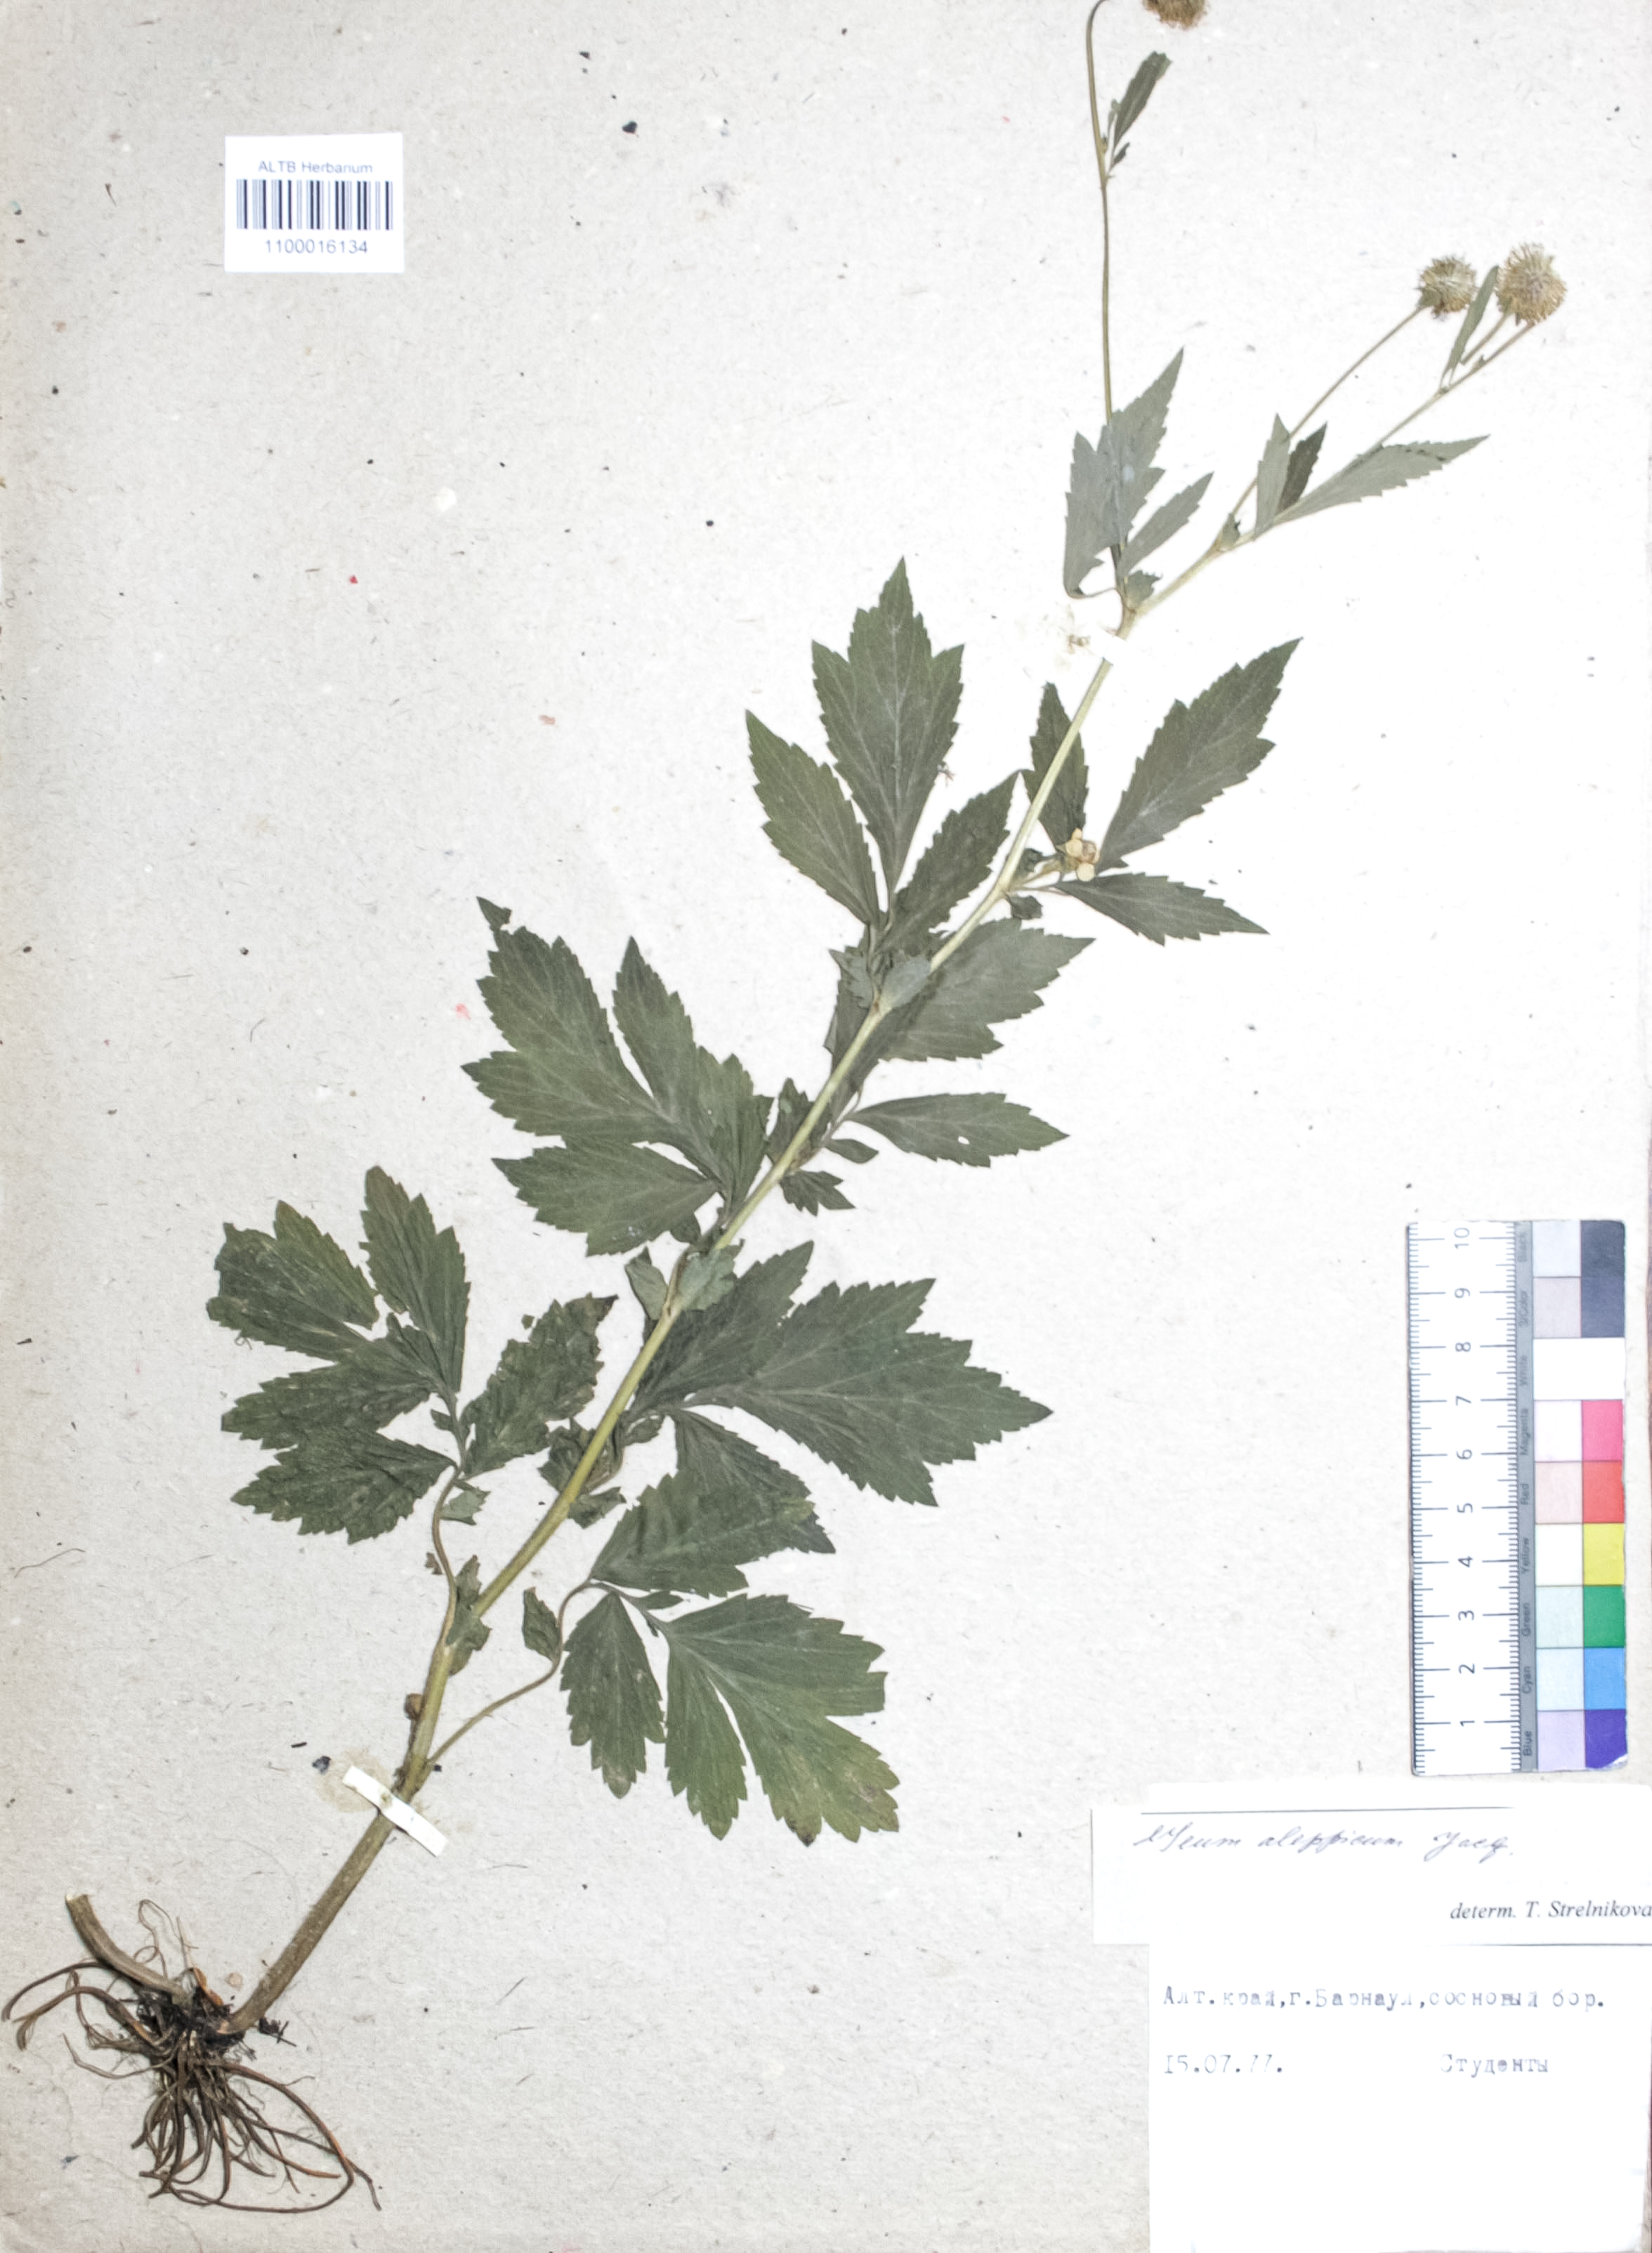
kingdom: Plantae
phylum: Tracheophyta
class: Magnoliopsida
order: Rosales
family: Rosaceae
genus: Geum
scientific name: Geum aleppicum
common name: Yellow avens
